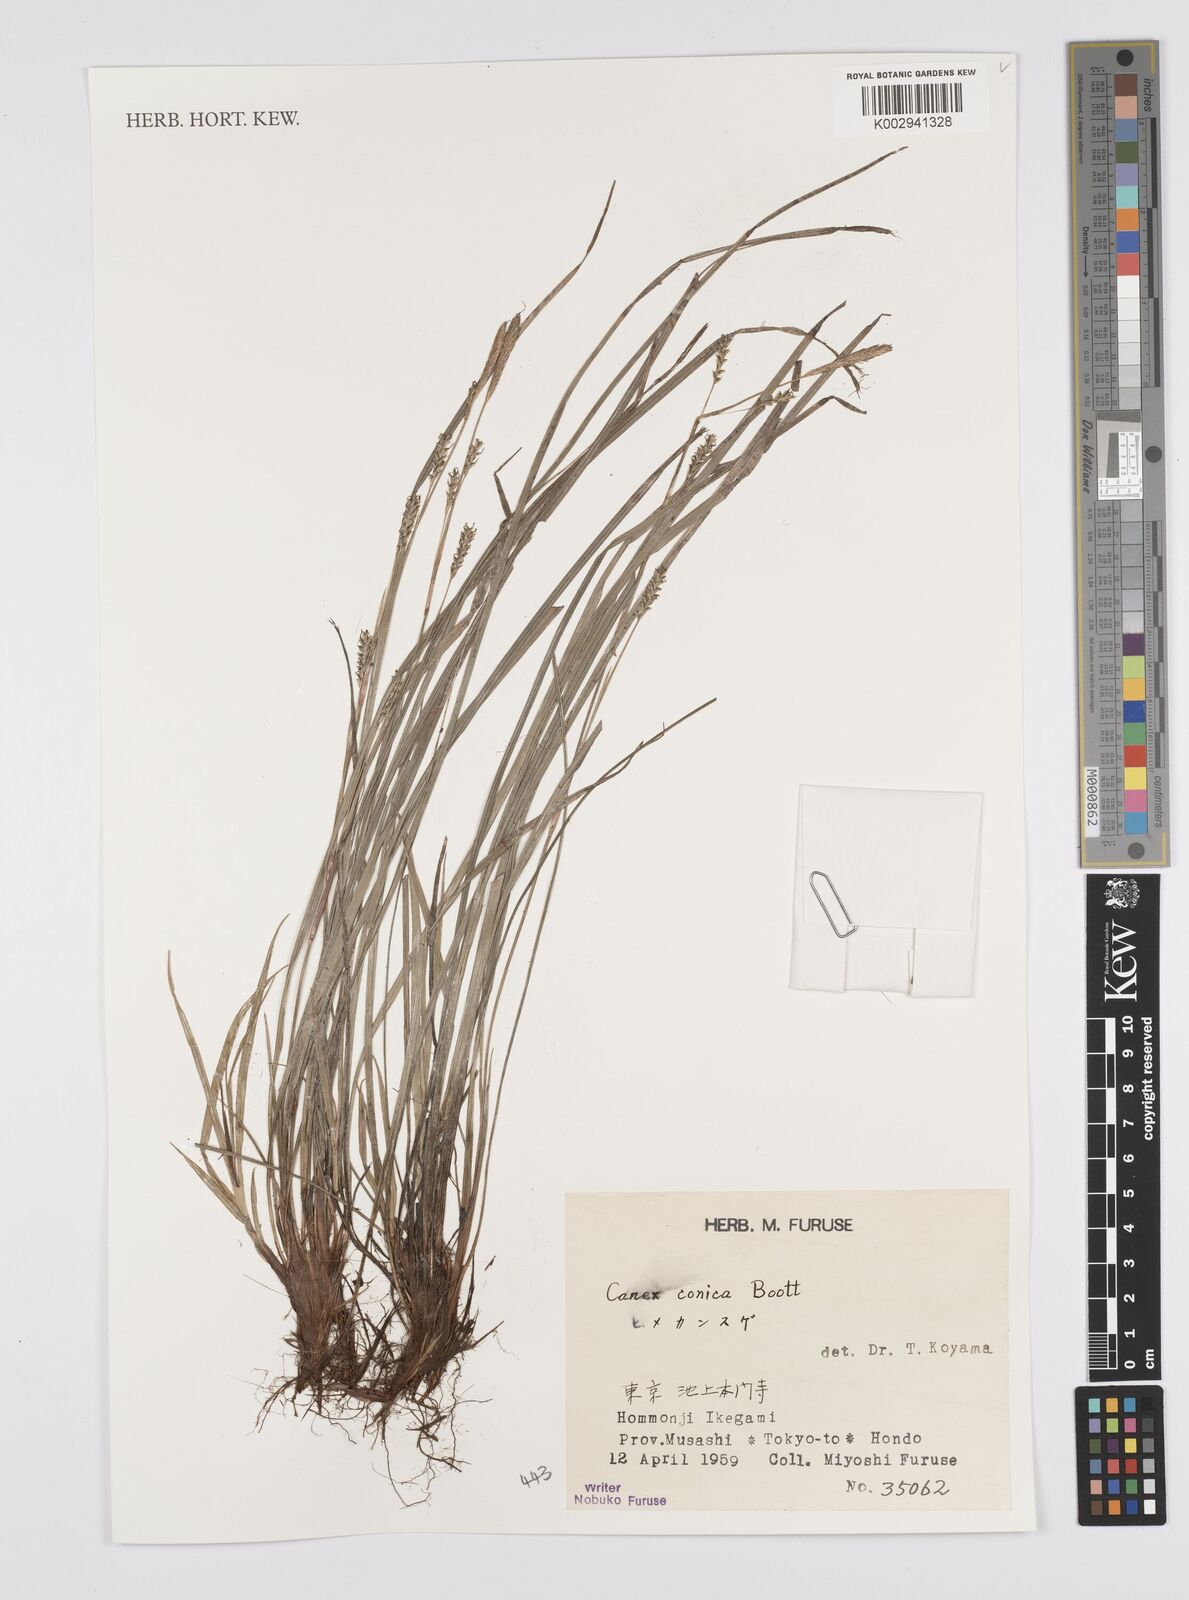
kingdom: Plantae
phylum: Tracheophyta
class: Liliopsida
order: Poales
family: Cyperaceae
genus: Carex
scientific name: Carex conica
